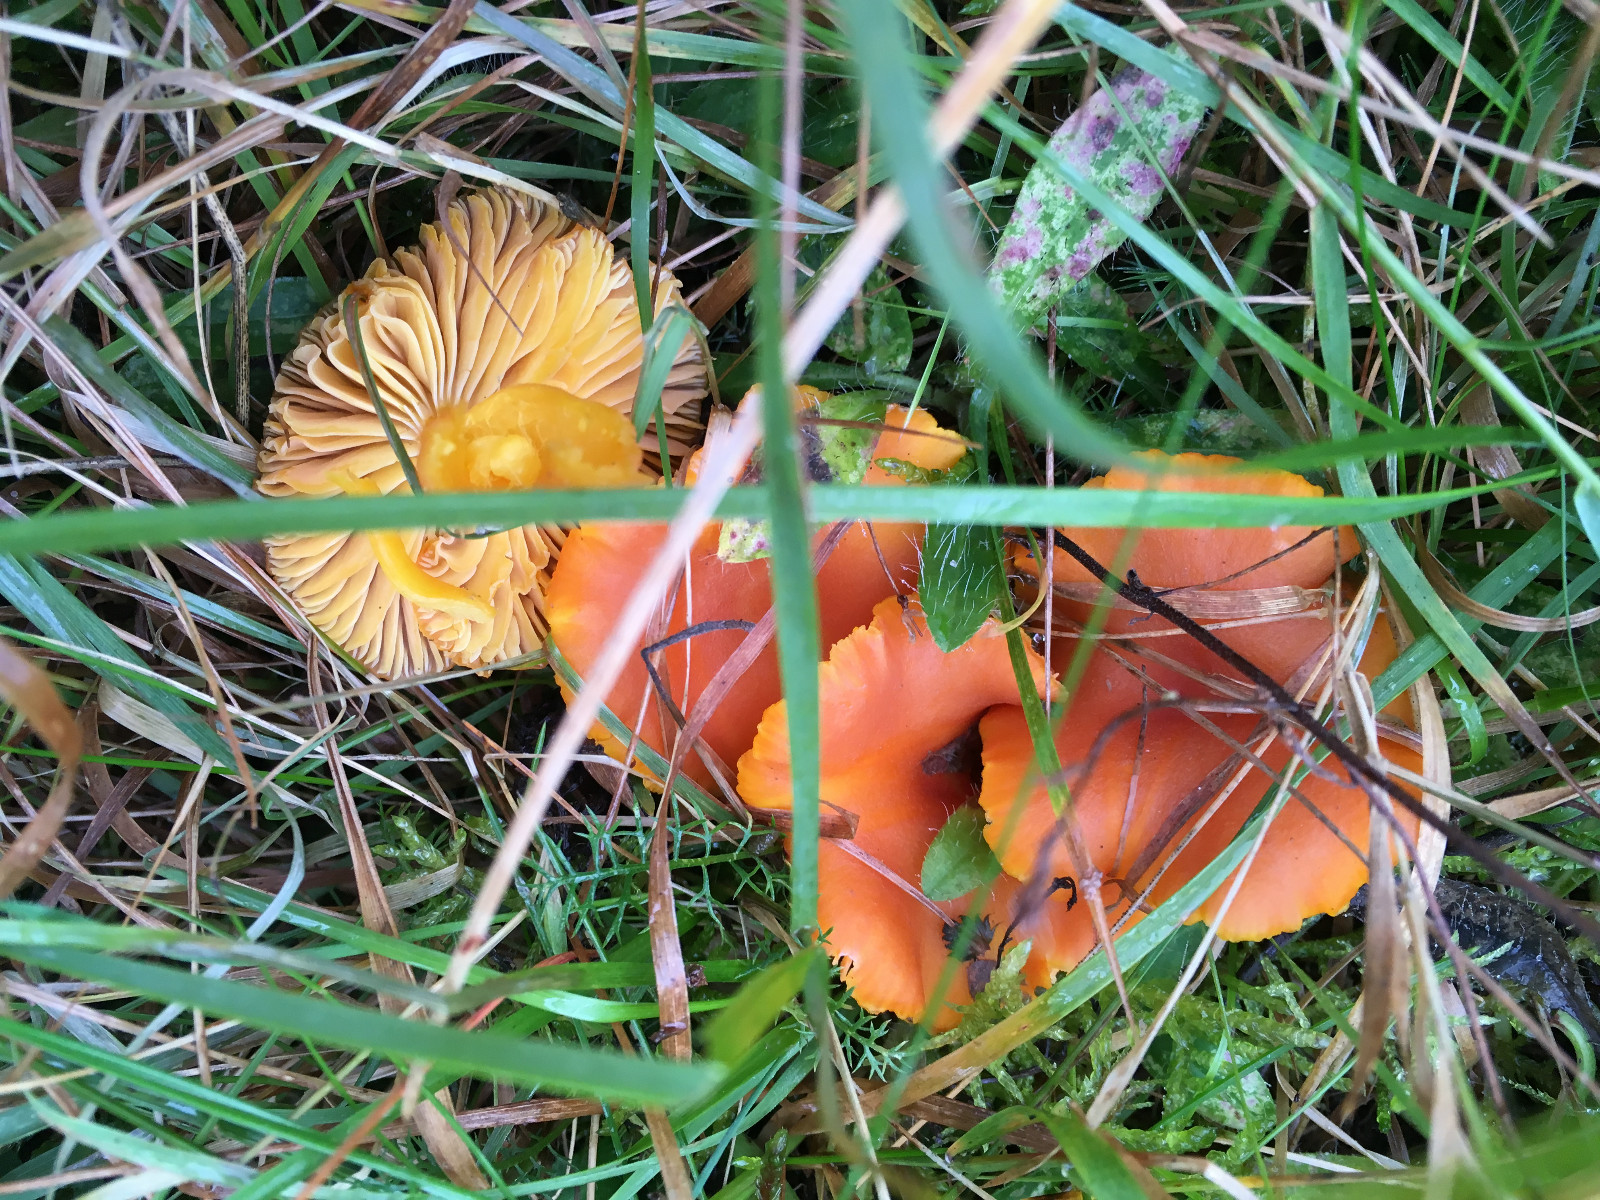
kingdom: Fungi
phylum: Basidiomycota
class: Agaricomycetes
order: Agaricales
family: Hygrophoraceae
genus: Hygrocybe
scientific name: Hygrocybe
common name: vokshat
